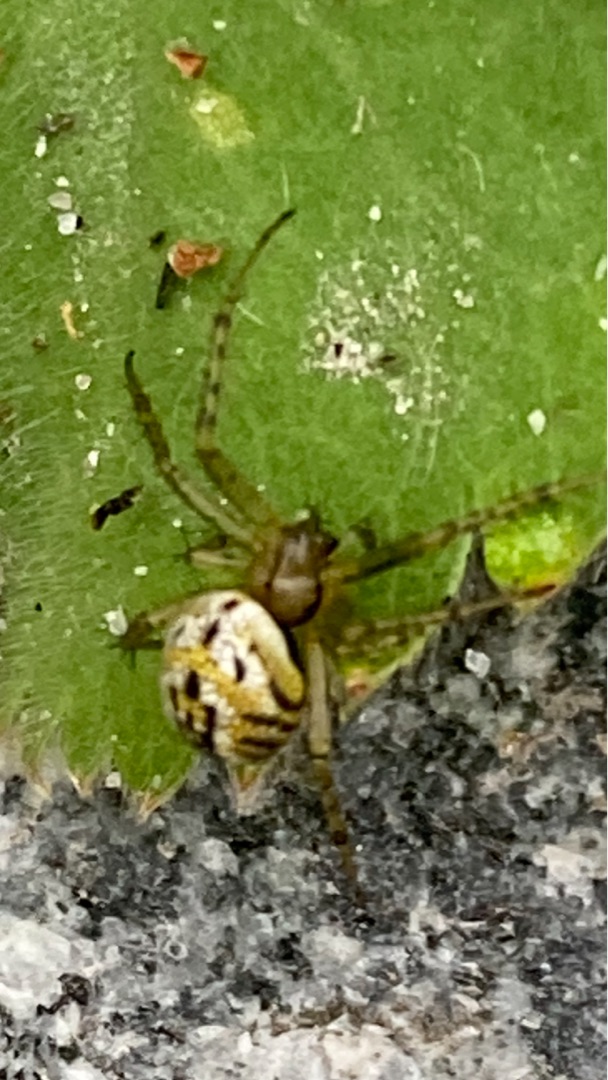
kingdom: Animalia
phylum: Arthropoda
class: Arachnida
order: Araneae
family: Araneidae
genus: Mangora
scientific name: Mangora acalypha
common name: Sortstribet hedehjulspinder
